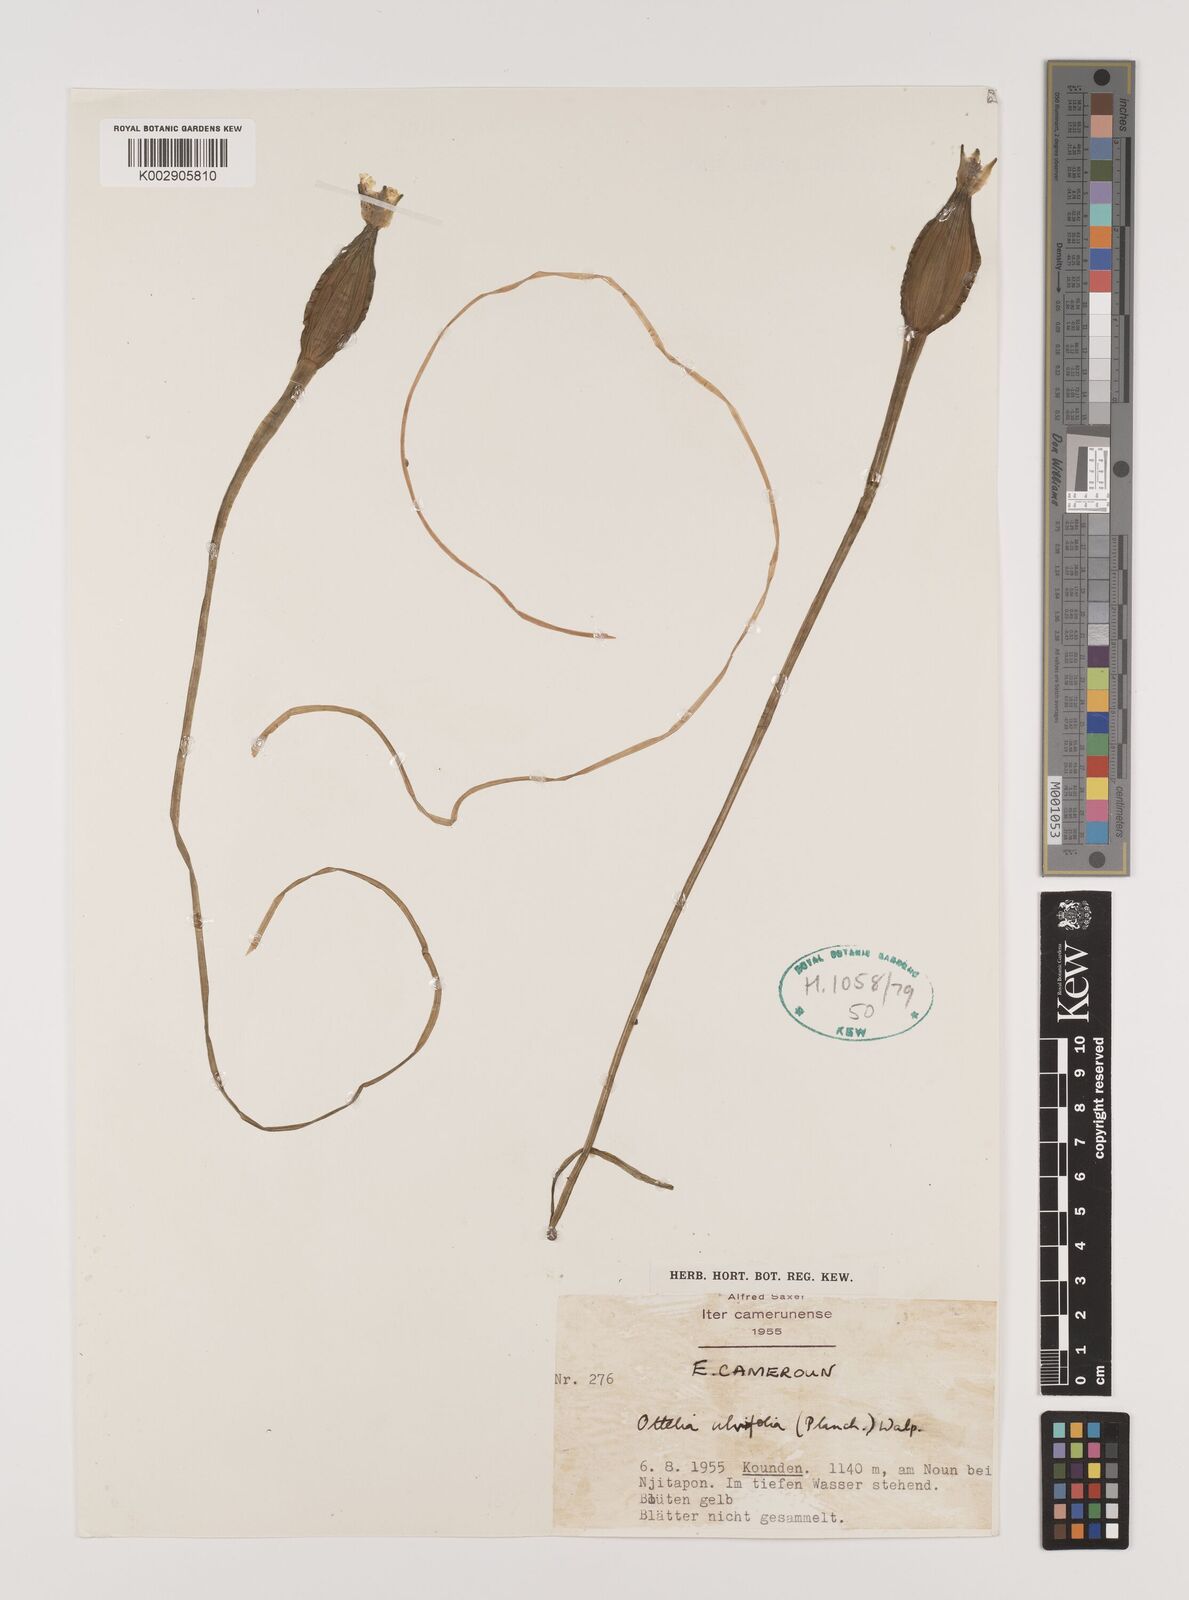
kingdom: Plantae
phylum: Tracheophyta
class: Liliopsida
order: Alismatales
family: Hydrocharitaceae
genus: Ottelia
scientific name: Ottelia ulvifolia
